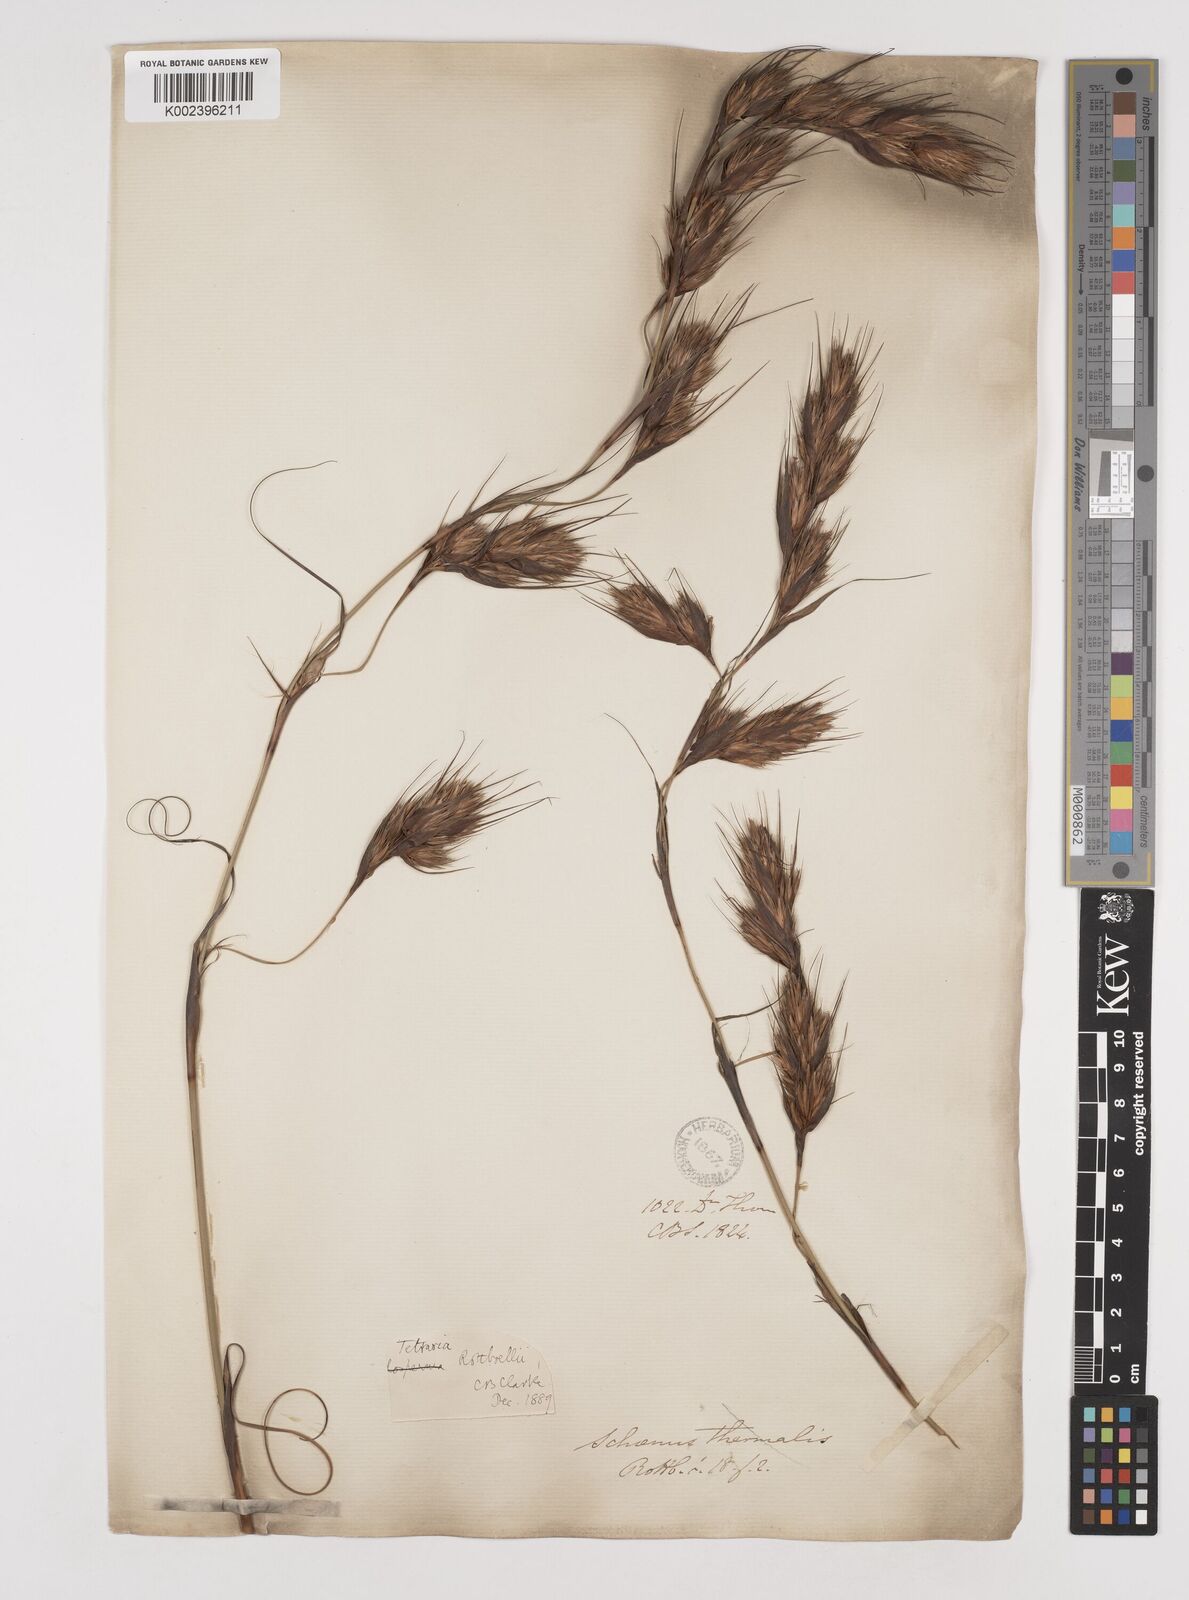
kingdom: Plantae
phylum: Tracheophyta
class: Liliopsida
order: Poales
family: Cyperaceae
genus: Tetraria
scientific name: Tetraria bromoides
